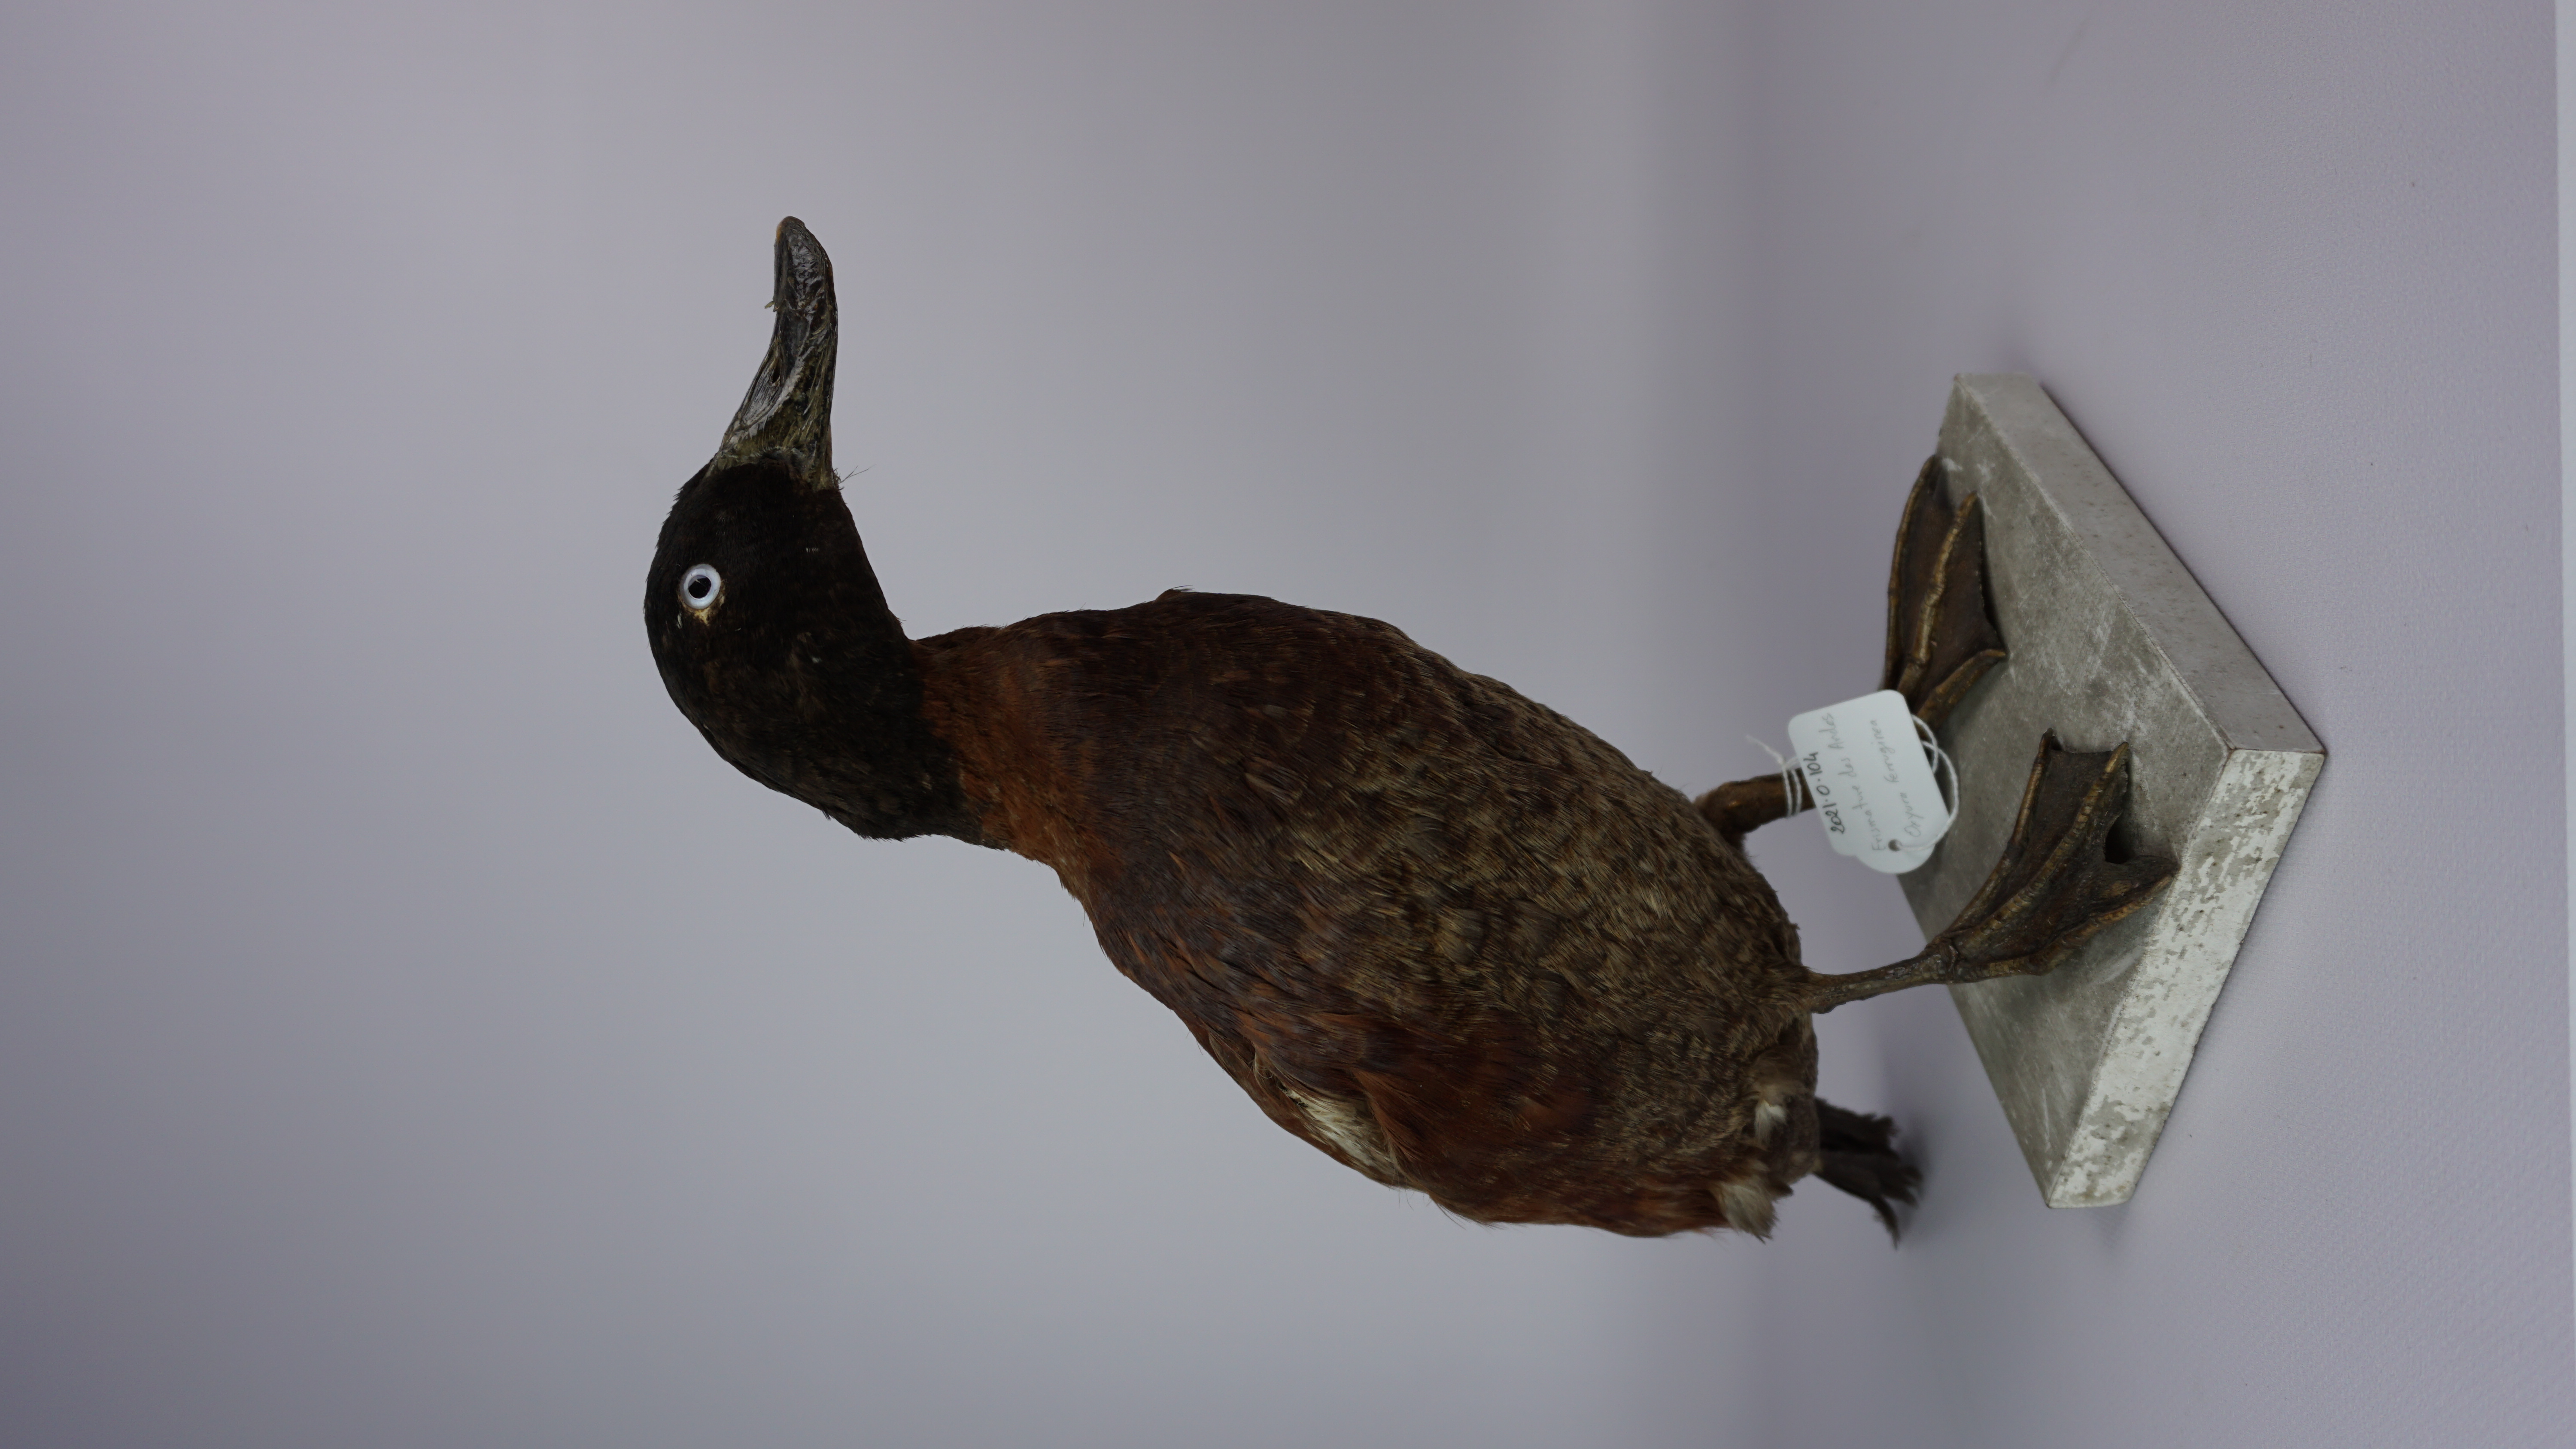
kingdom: Animalia
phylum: Chordata
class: Aves
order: Anseriformes
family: Anatidae
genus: Oxyura
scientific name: Oxyura ferruginea
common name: Andean duck
